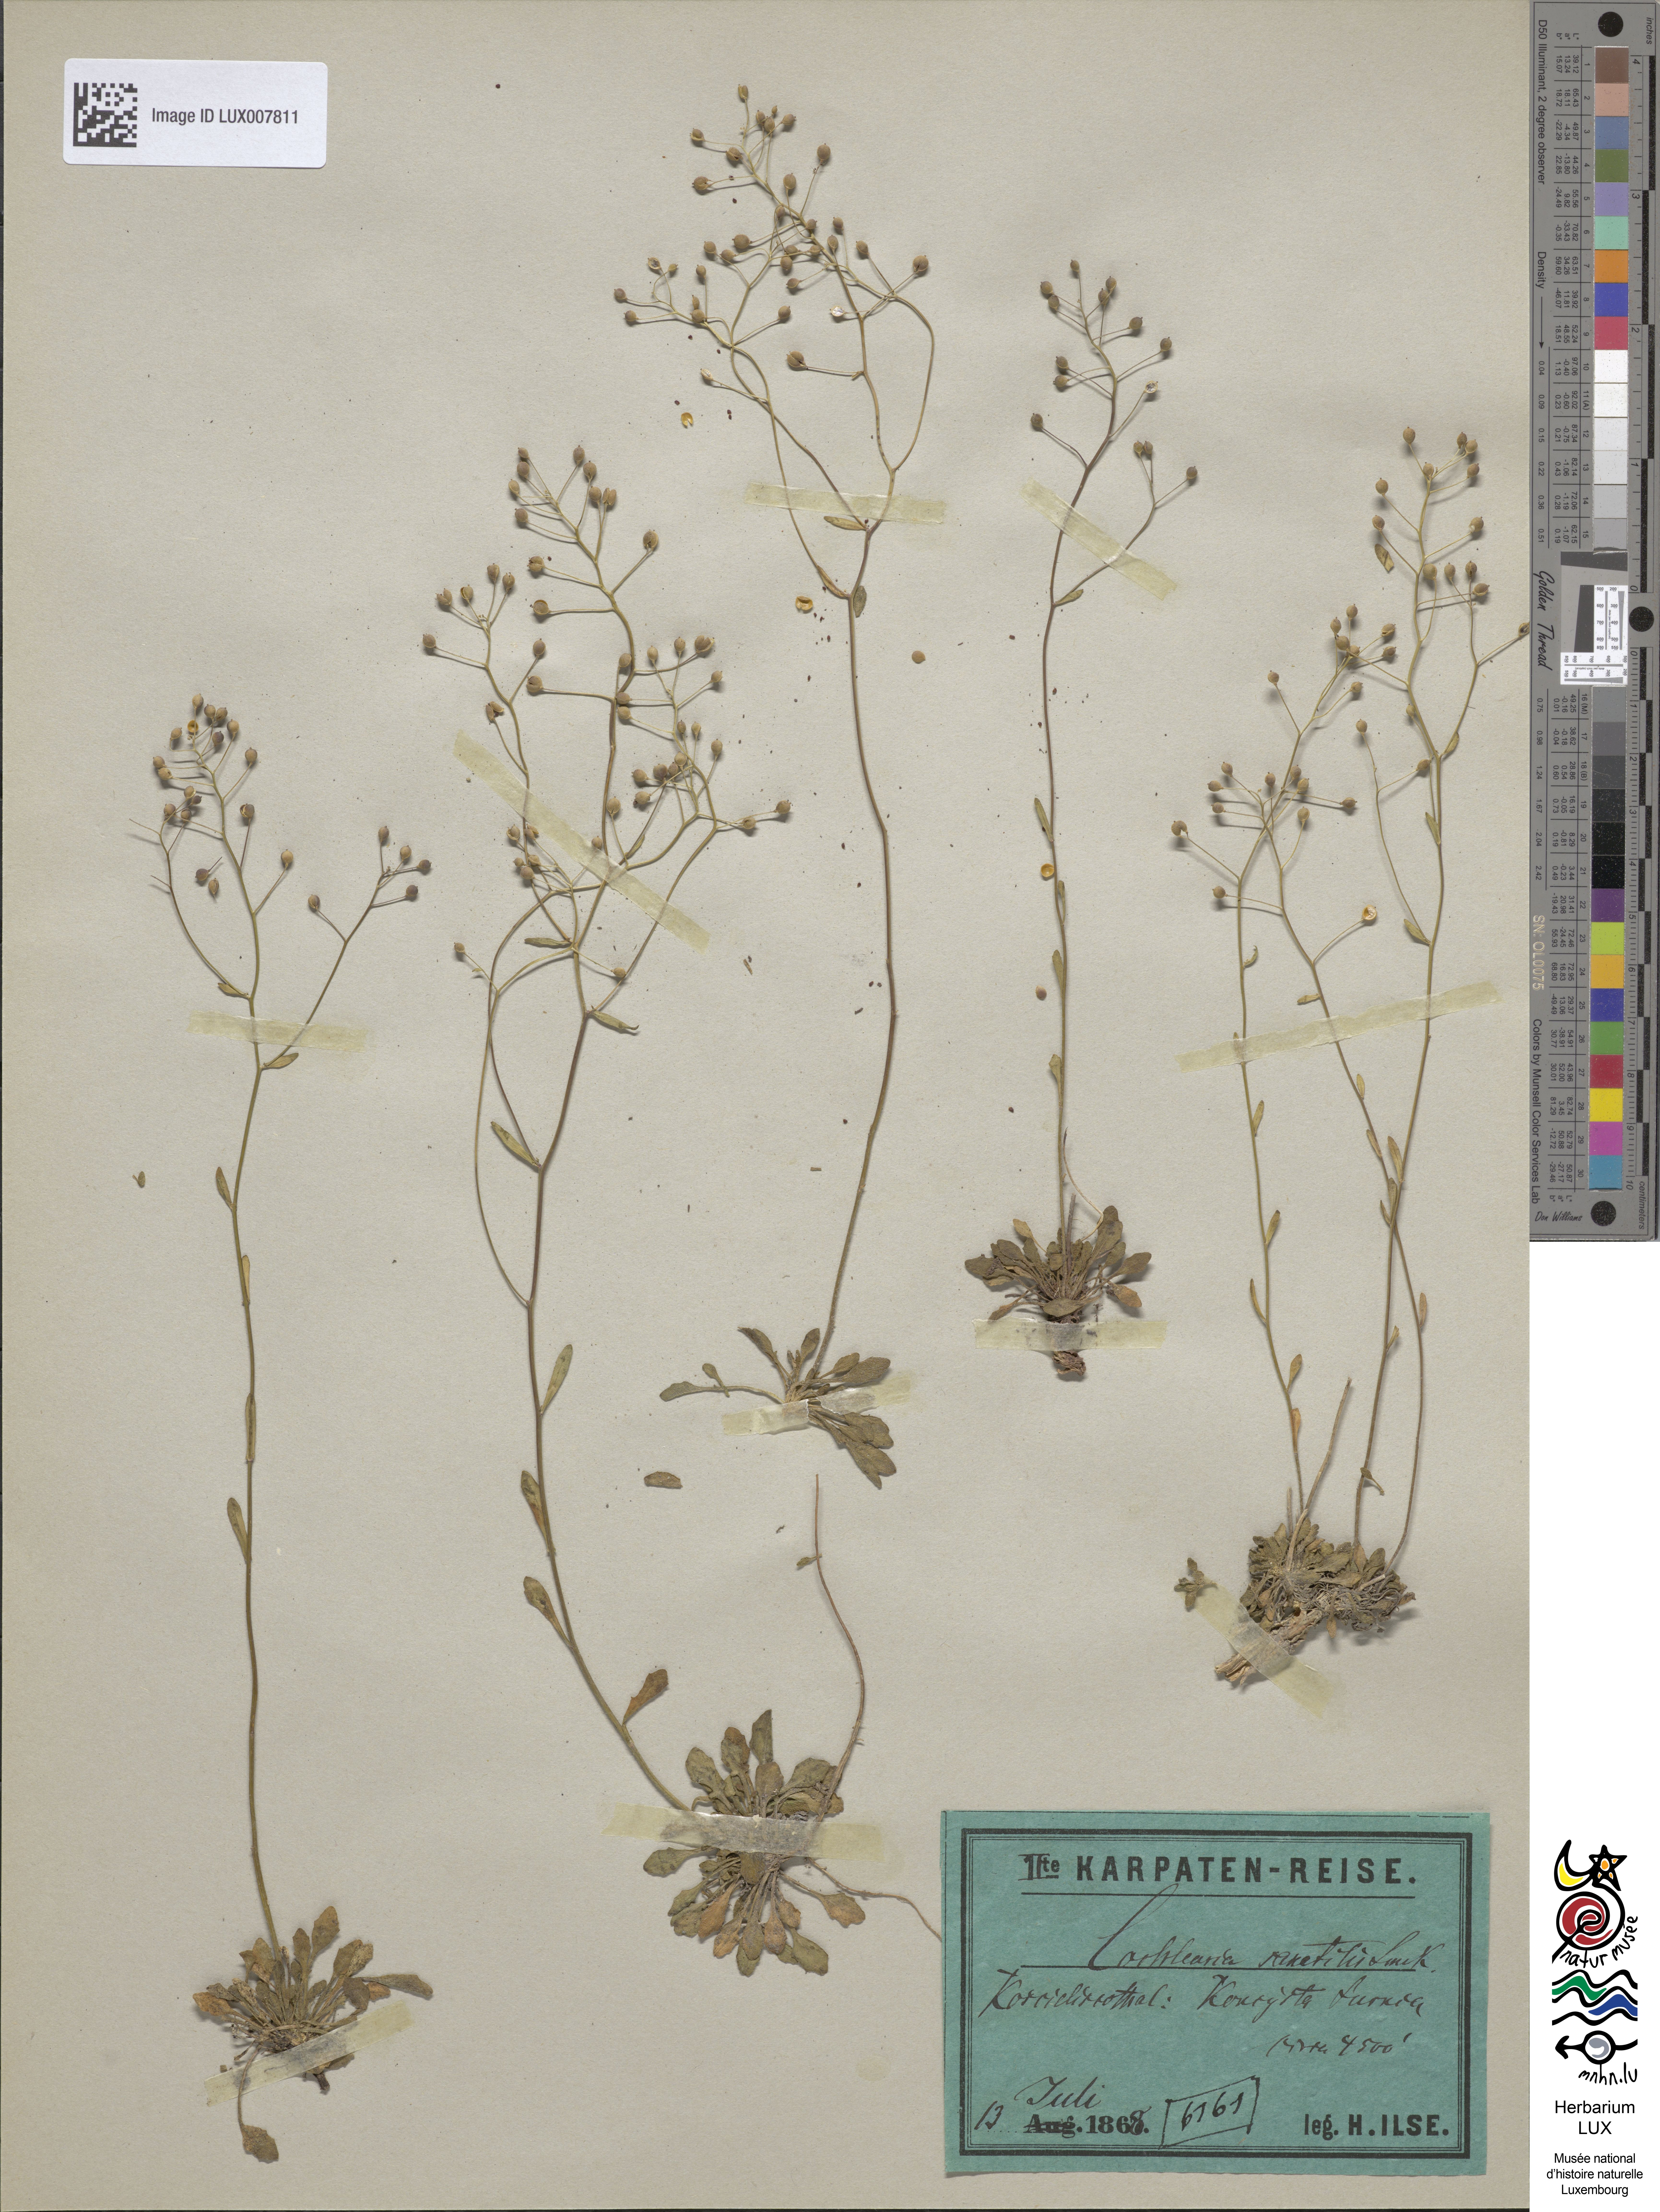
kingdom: Plantae
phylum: Tracheophyta
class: Magnoliopsida
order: Brassicales
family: Brassicaceae
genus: Kernera
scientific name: Kernera saxatilis
